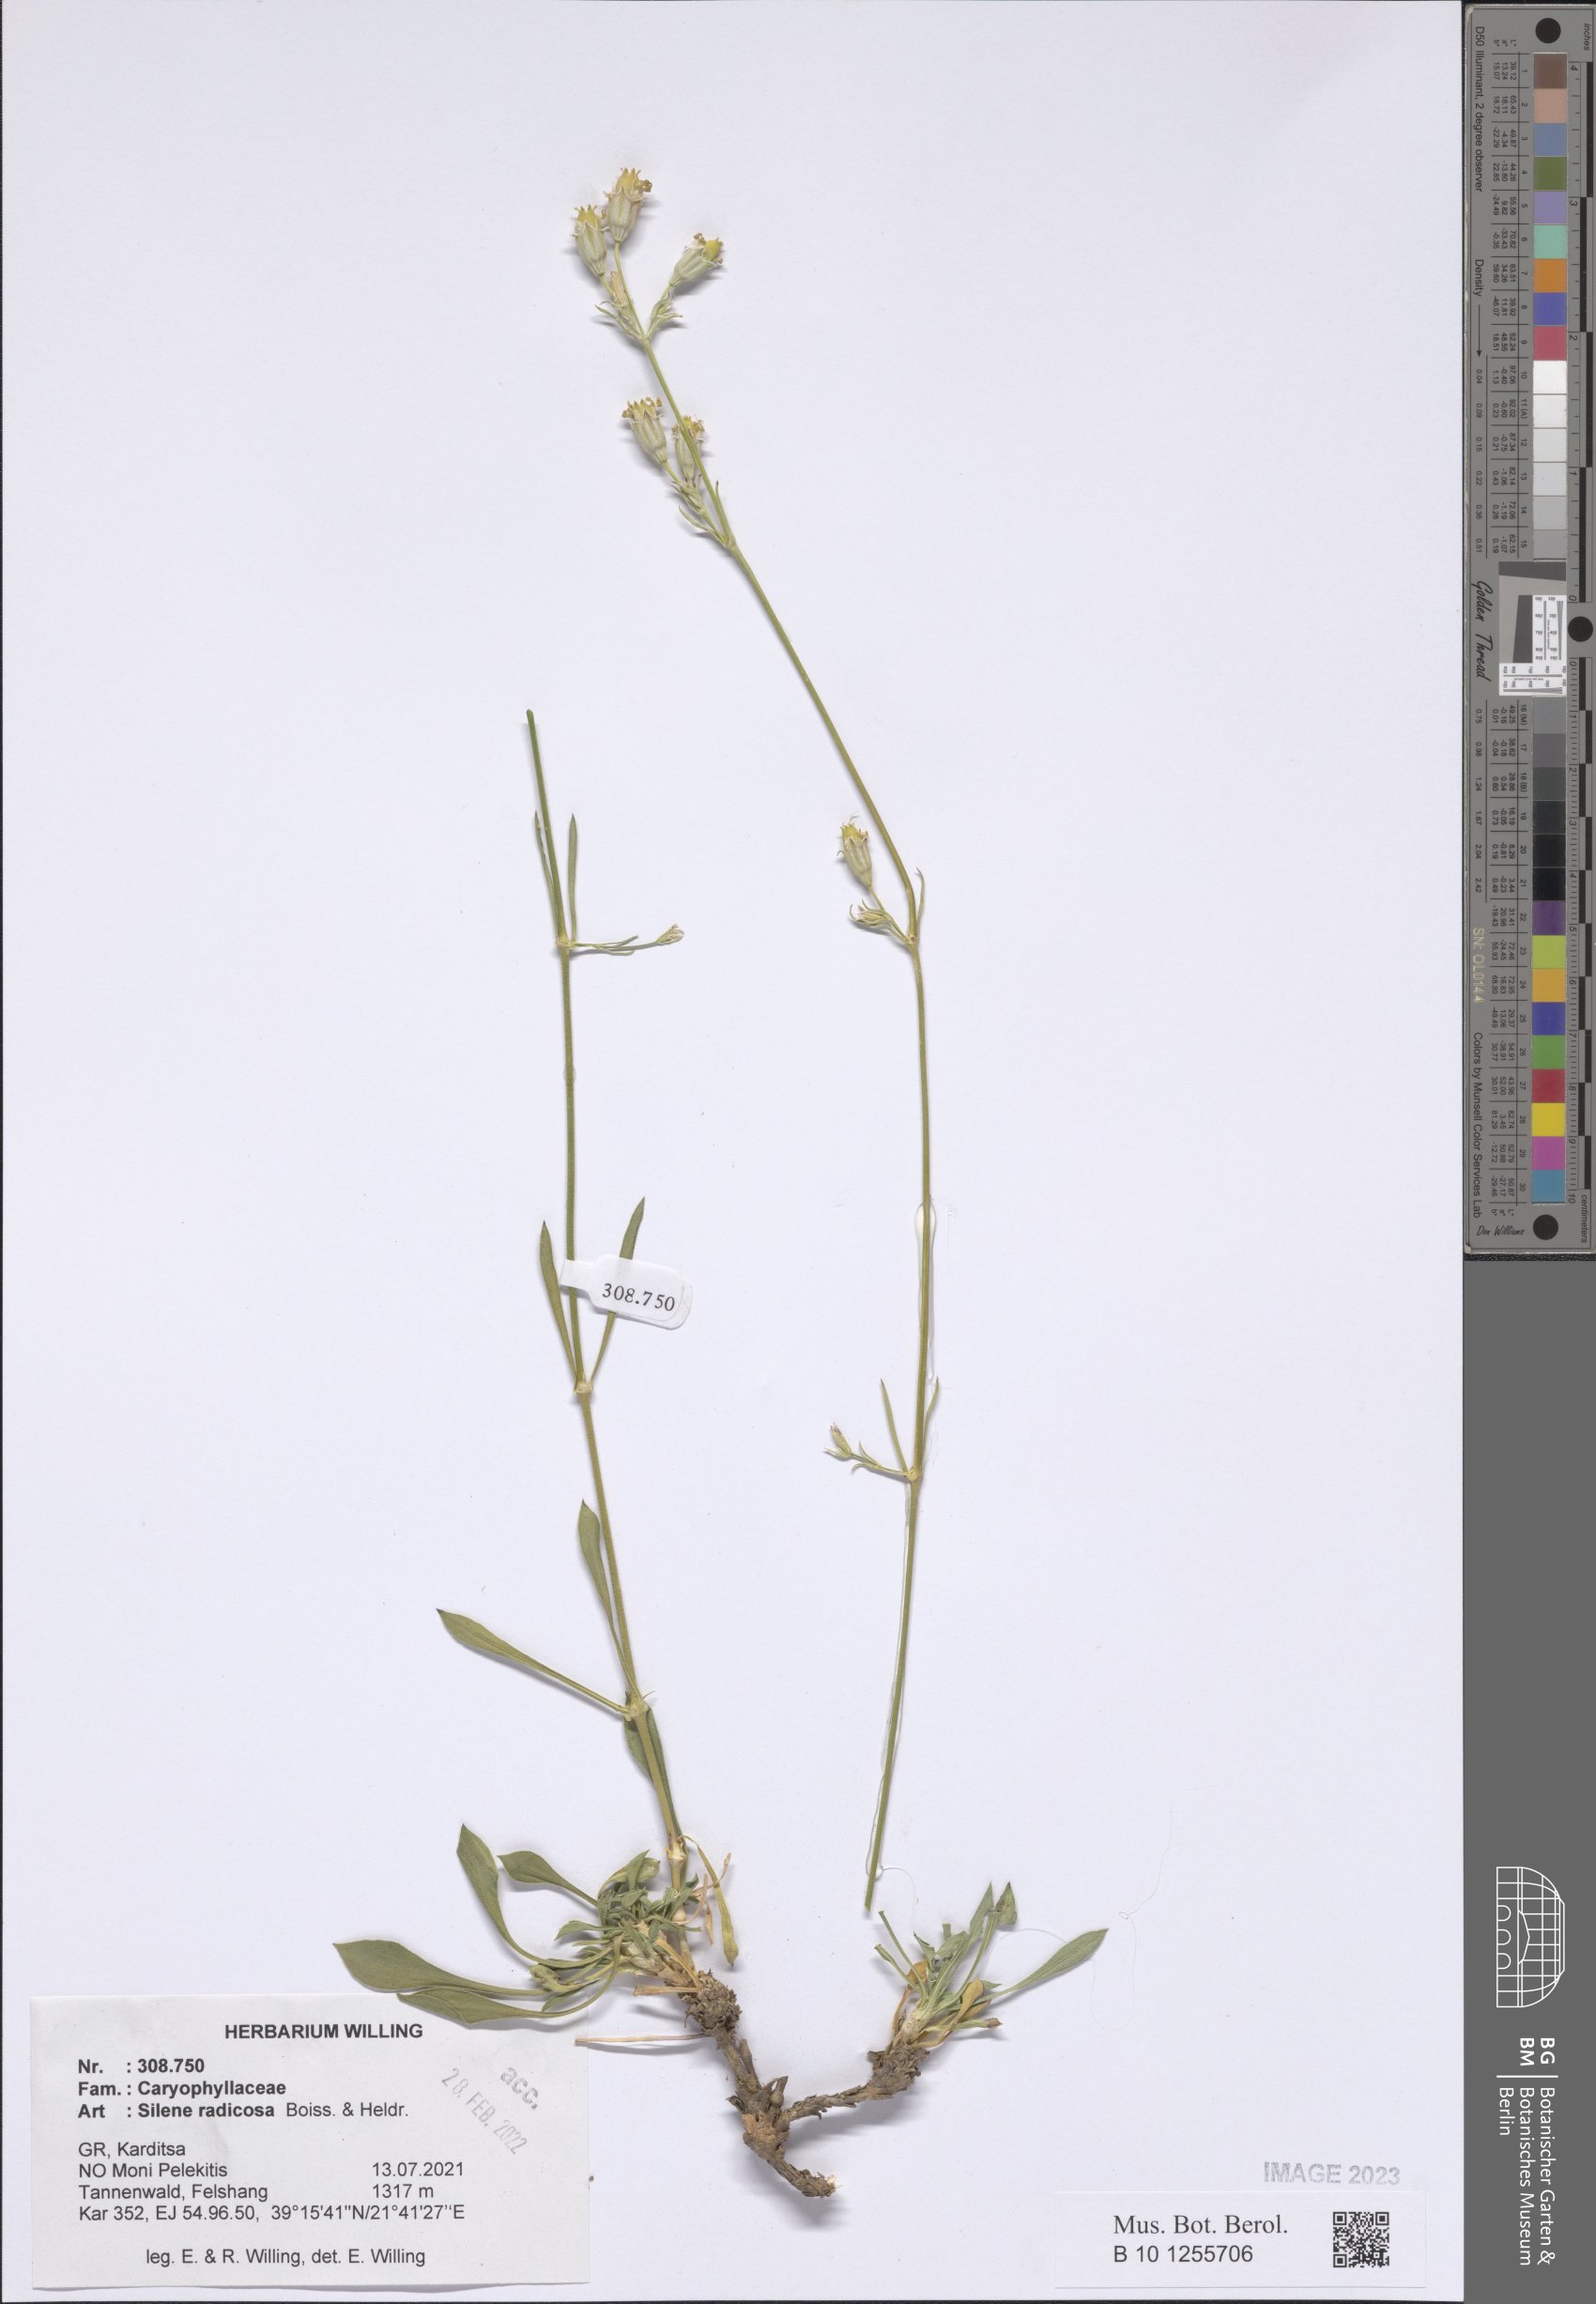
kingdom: Plantae
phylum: Tracheophyta
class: Magnoliopsida
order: Caryophyllales
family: Caryophyllaceae
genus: Silene
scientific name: Silene radicosa
